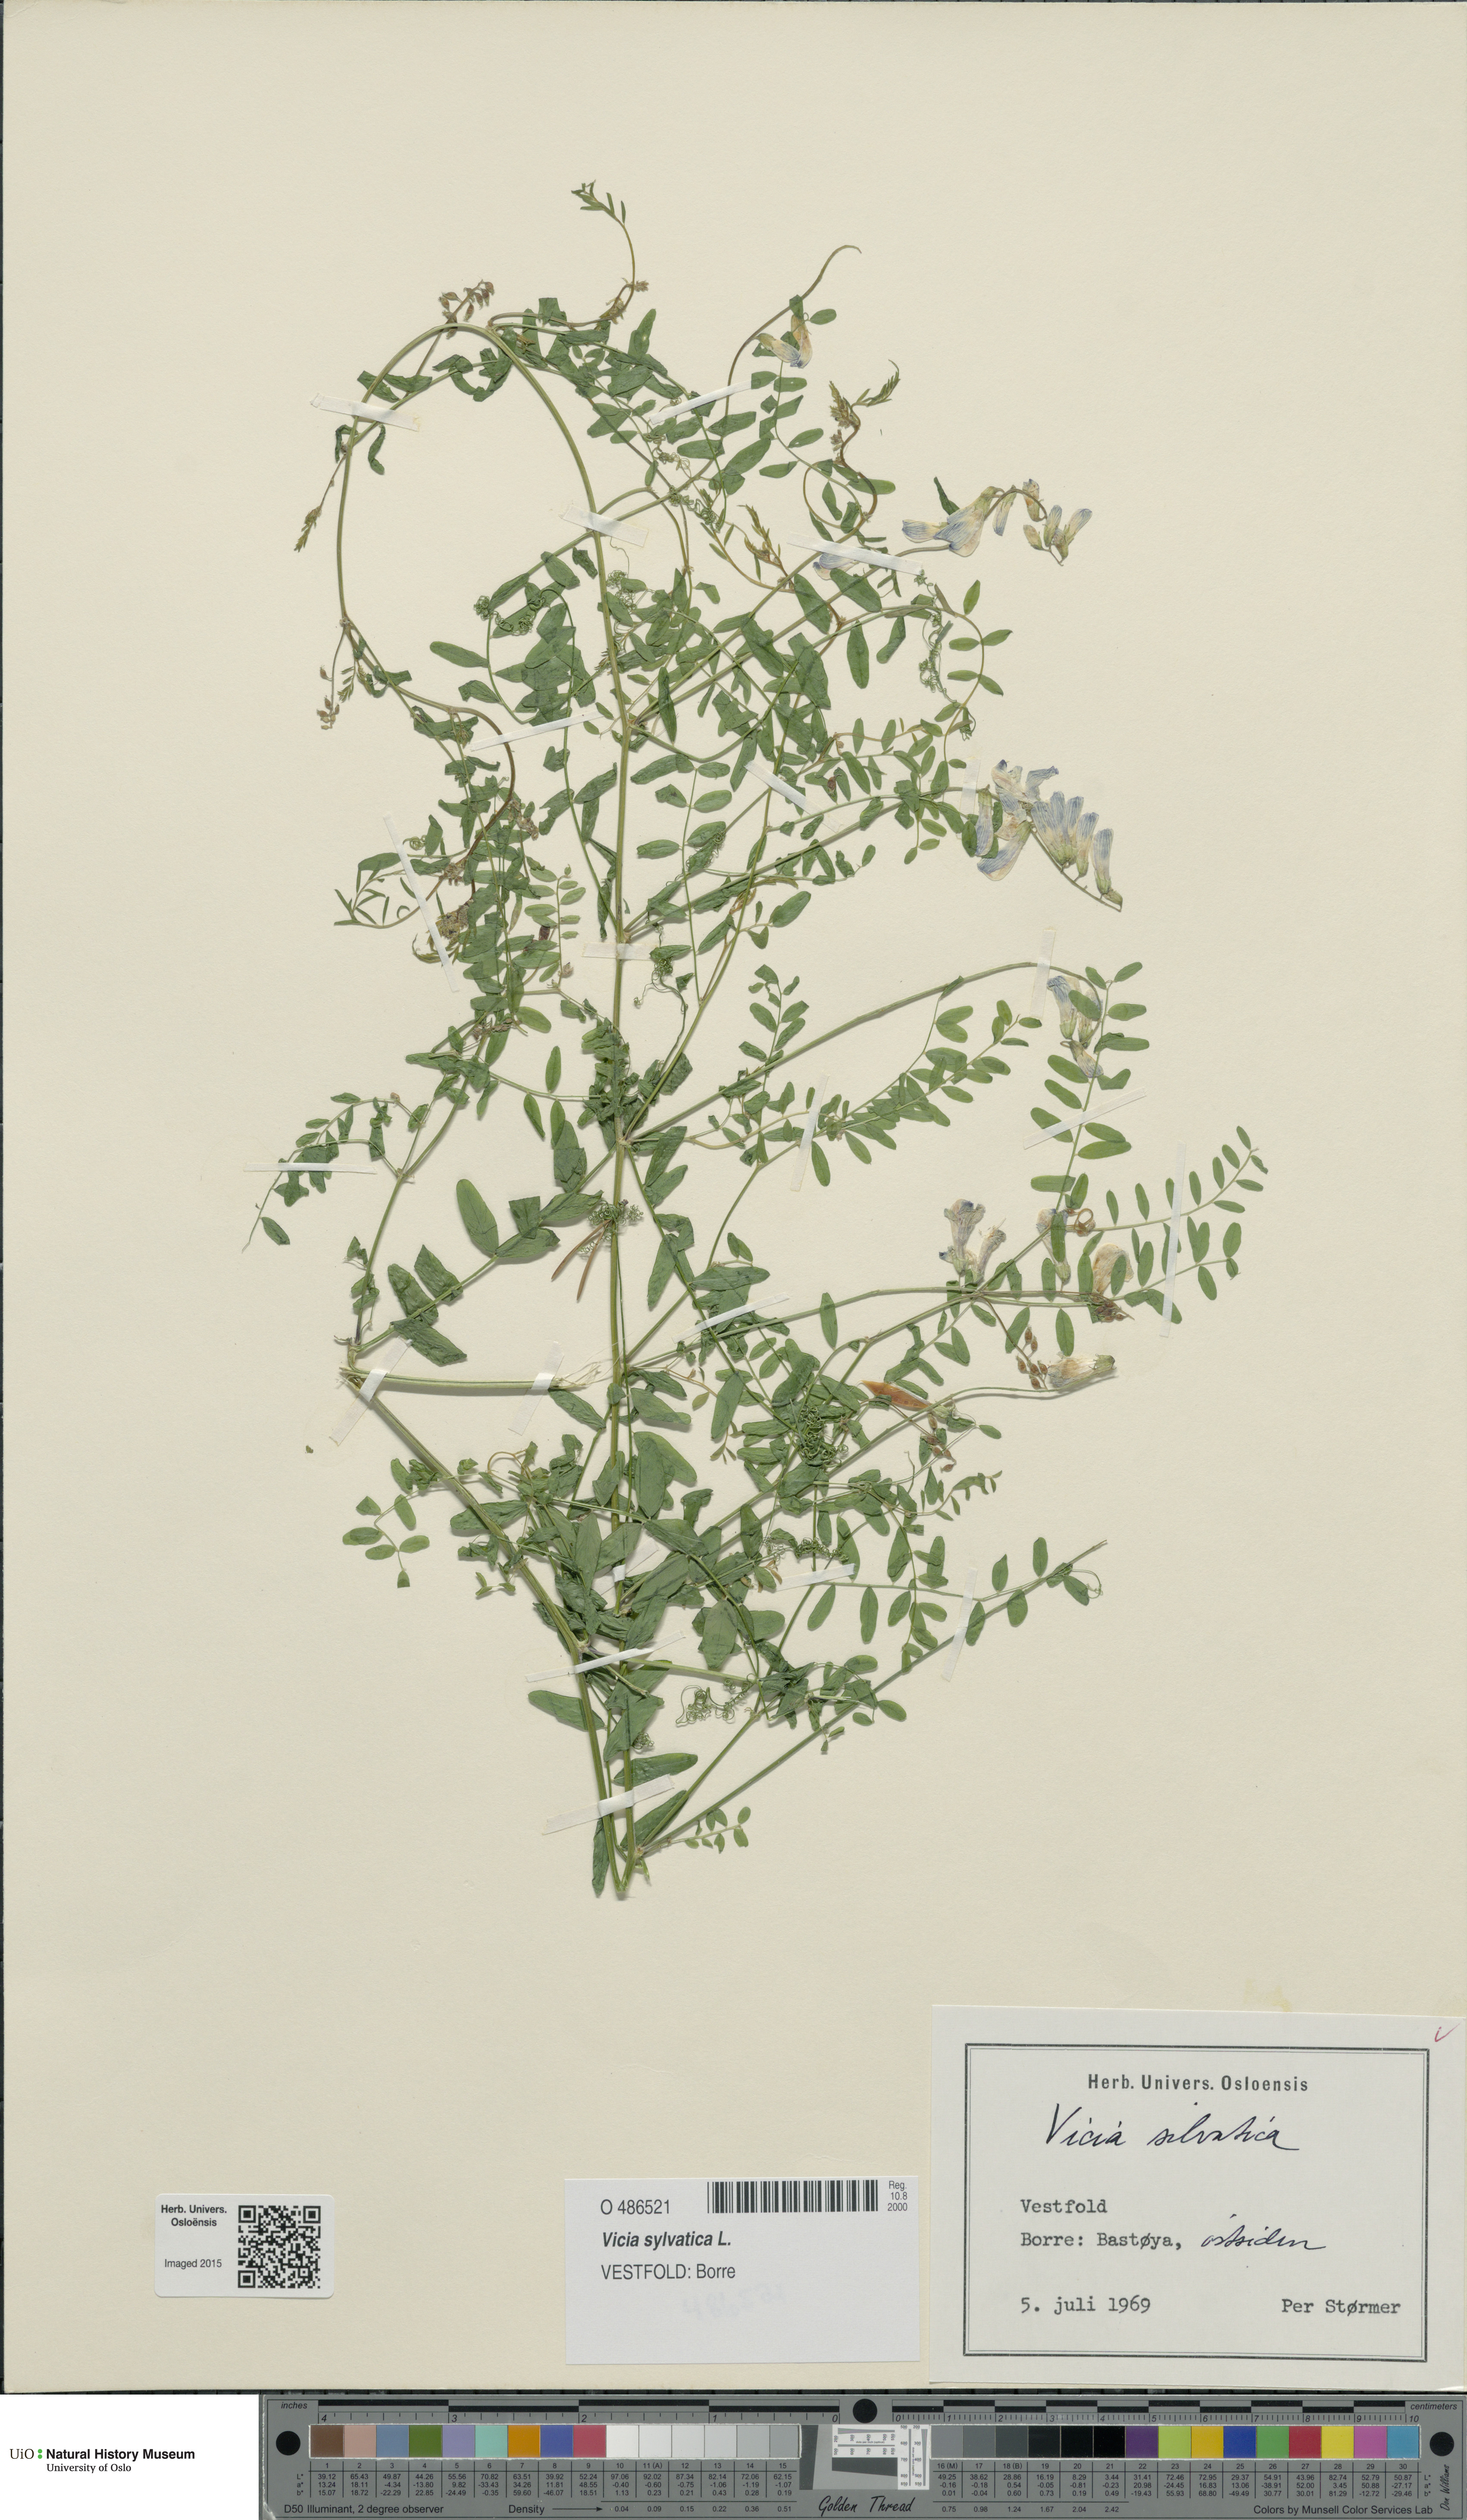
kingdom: Plantae
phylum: Tracheophyta
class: Magnoliopsida
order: Fabales
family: Fabaceae
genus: Vicia
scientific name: Vicia sylvatica
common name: Wood vetch
